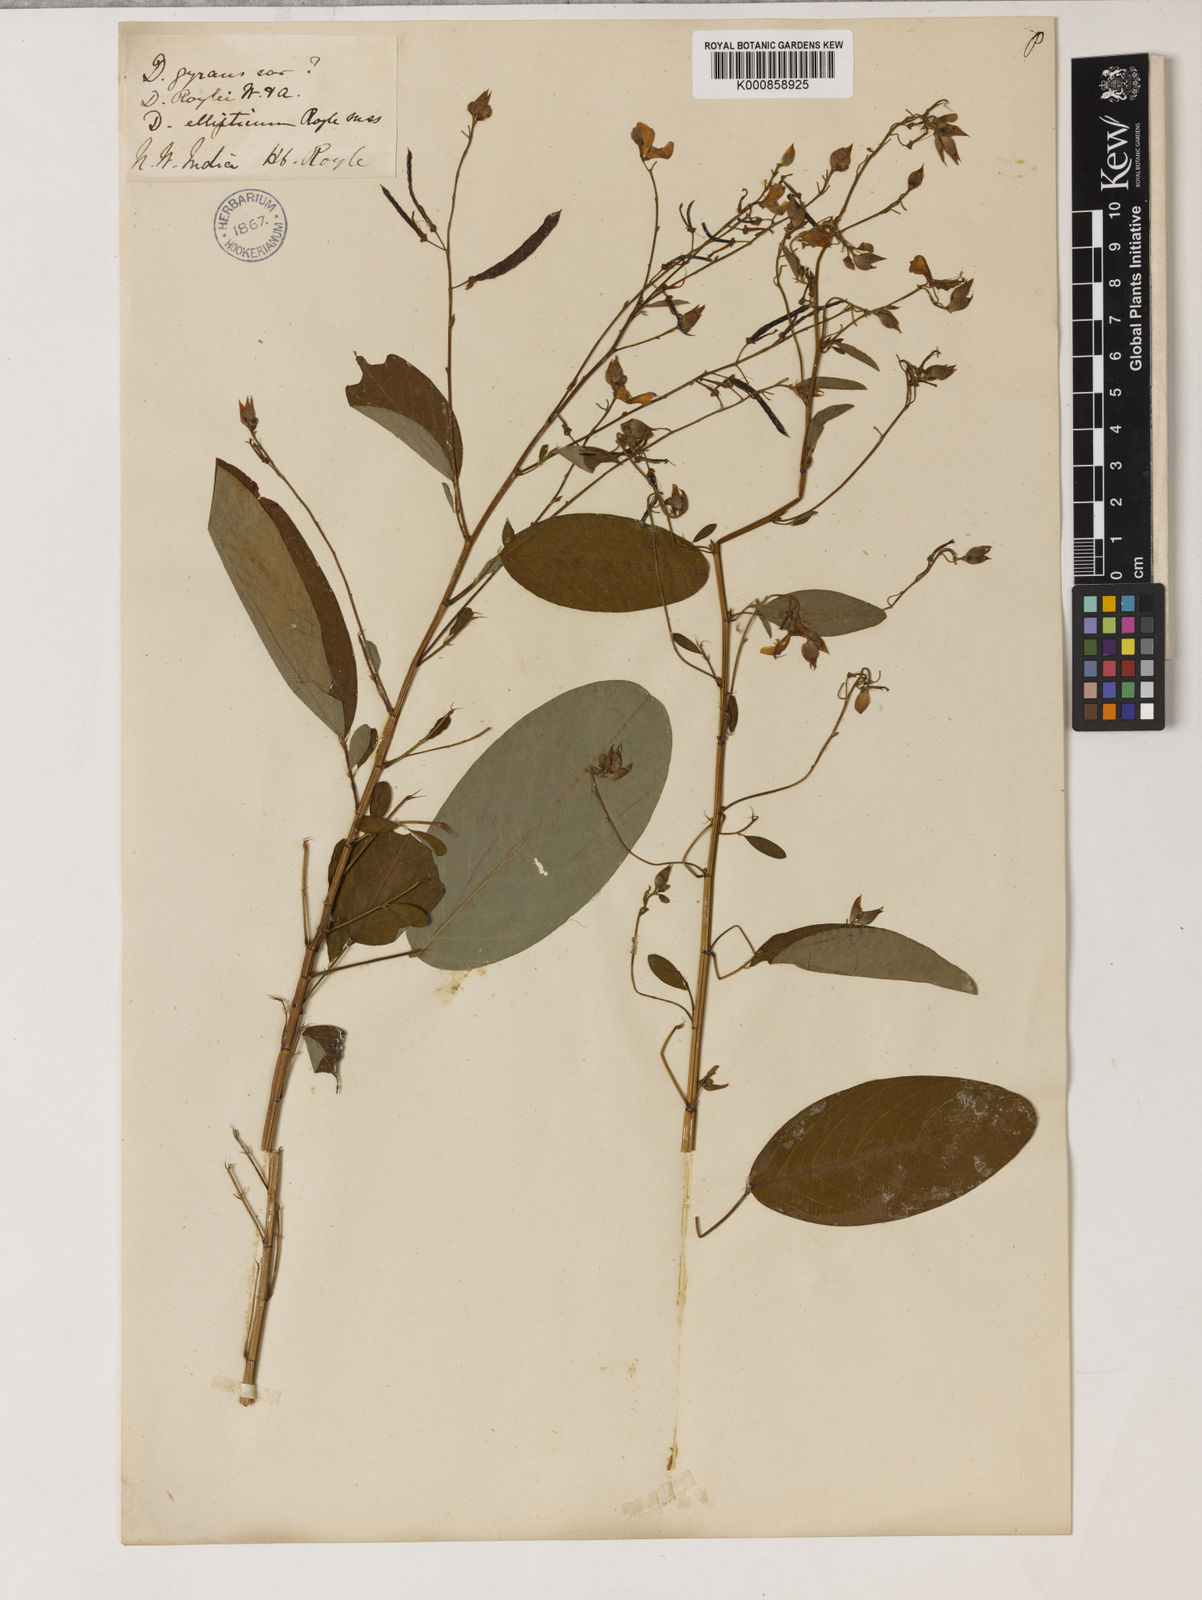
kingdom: Plantae
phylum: Tracheophyta
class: Magnoliopsida
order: Fabales
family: Fabaceae
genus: Codariocalyx
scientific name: Codariocalyx motorius
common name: Telegraph-plant
